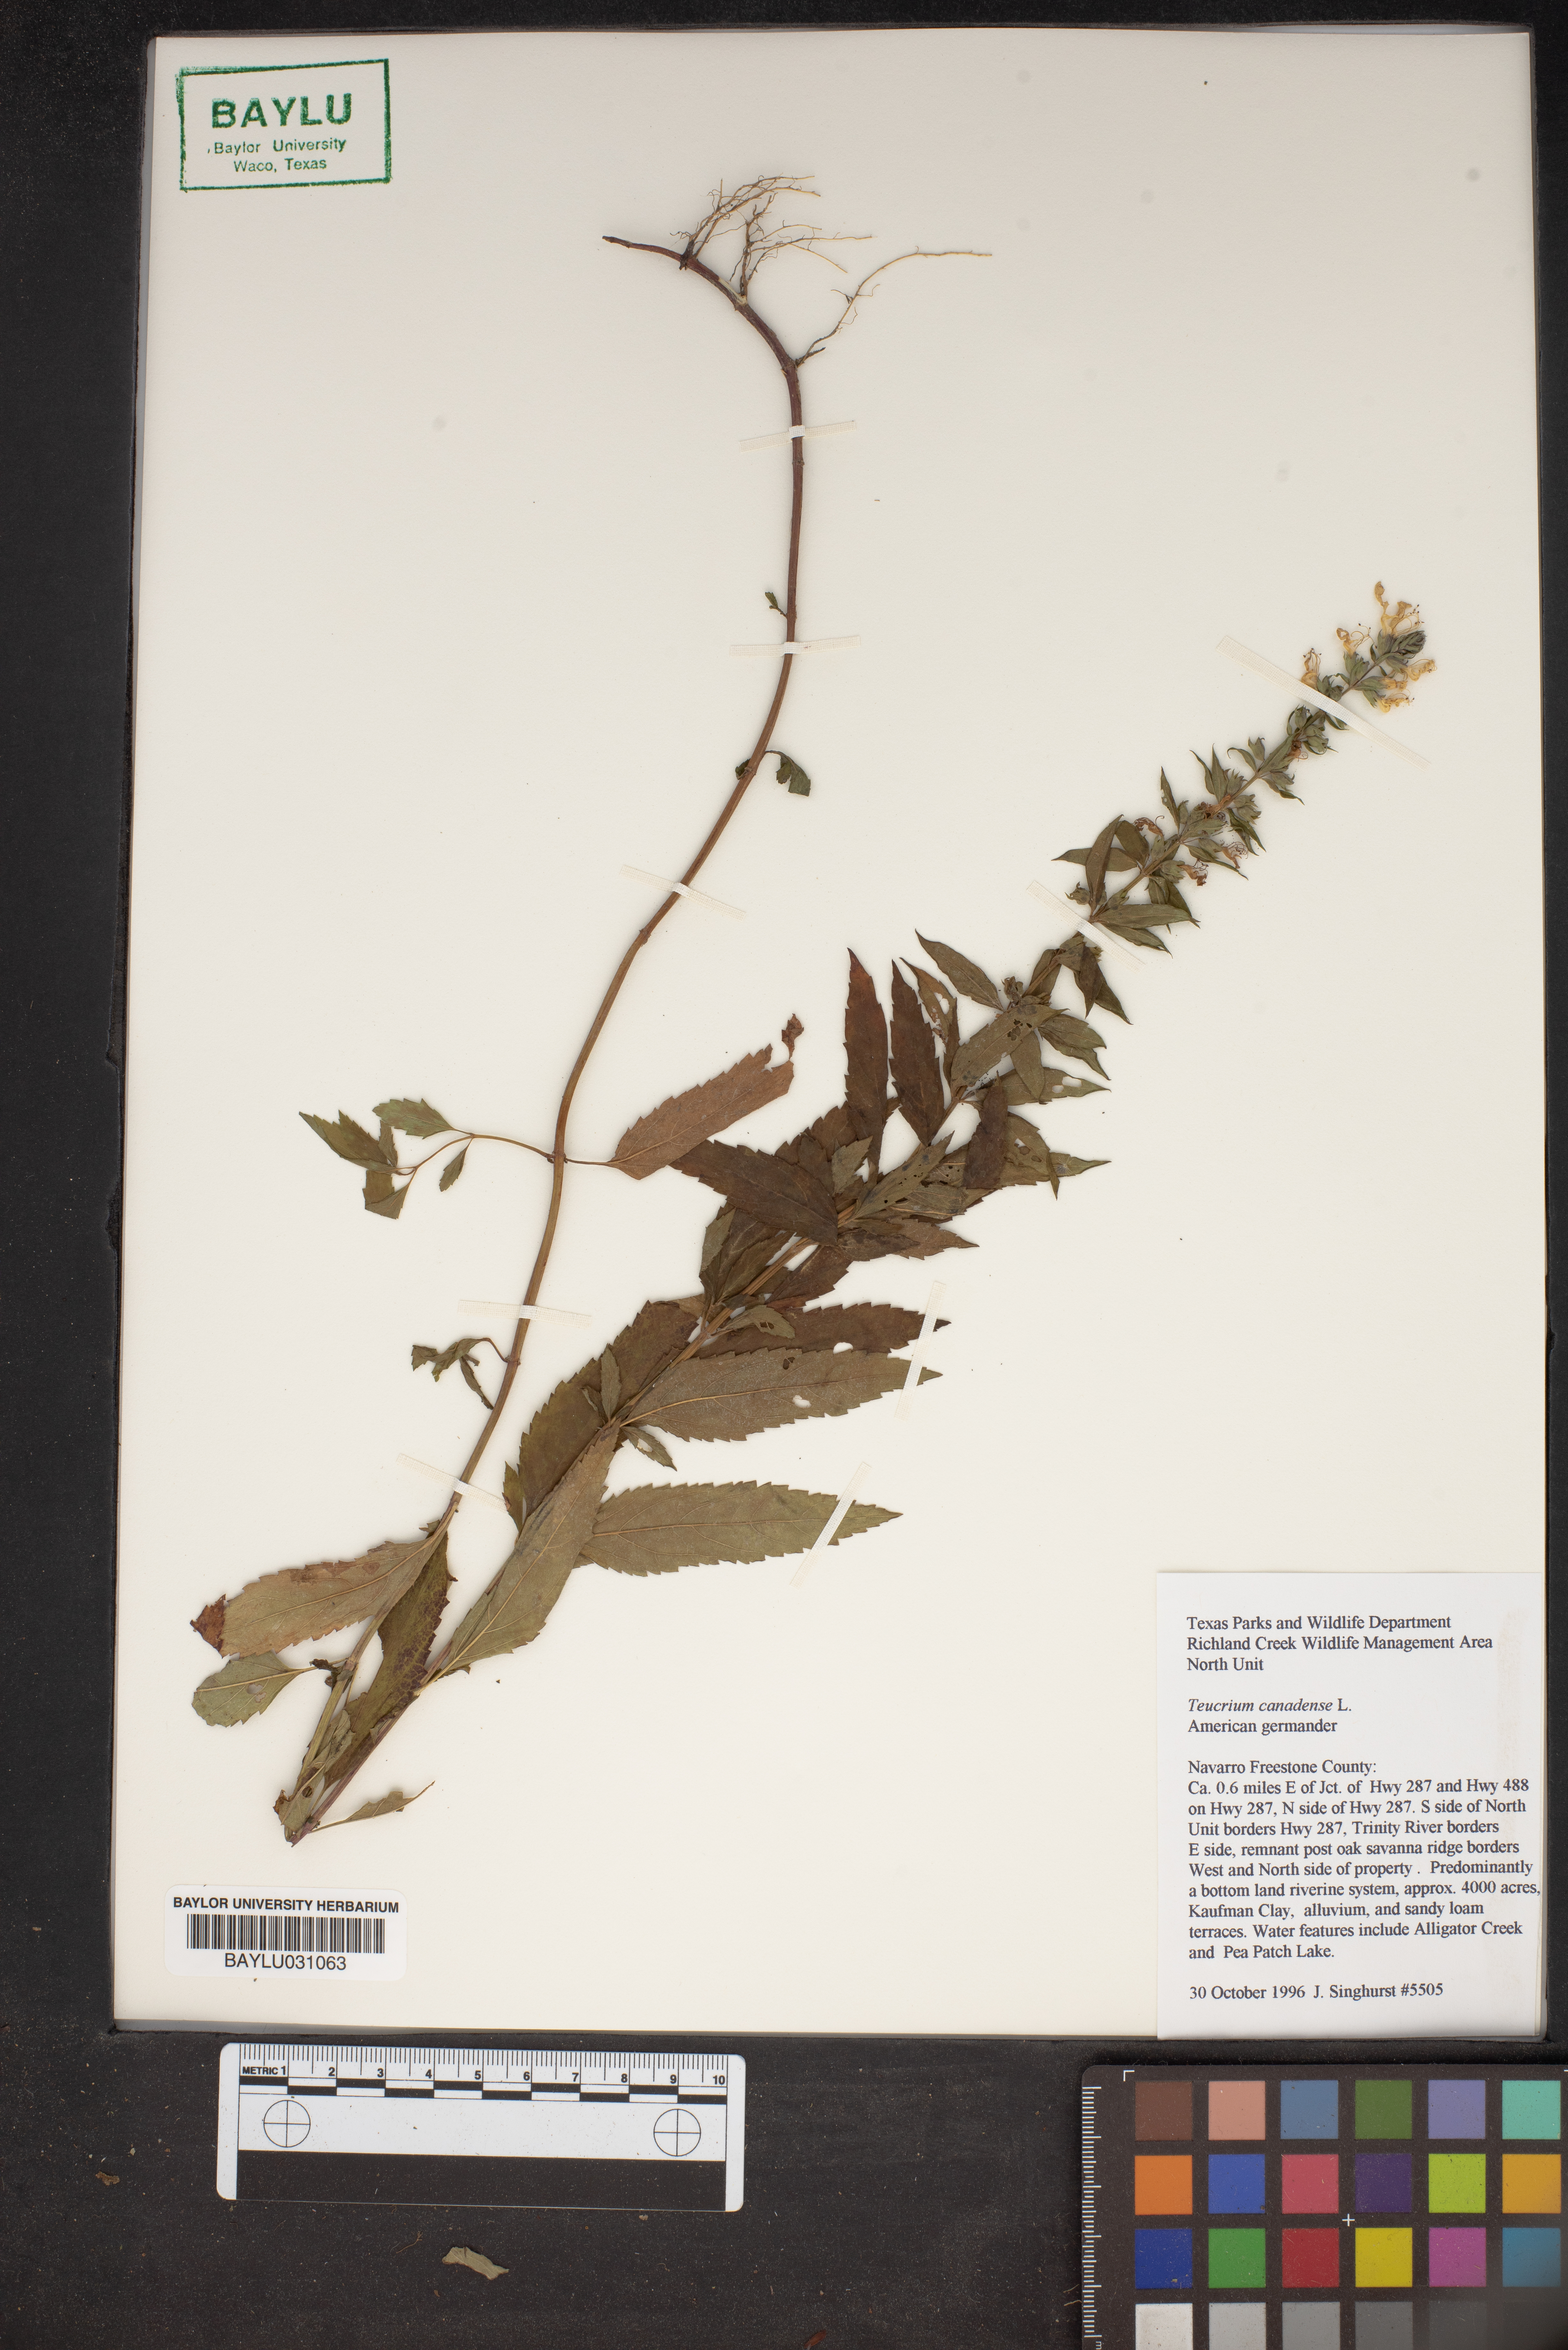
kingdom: Plantae
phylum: Tracheophyta
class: Magnoliopsida
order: Lamiales
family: Lamiaceae
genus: Teucrium
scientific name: Teucrium canadense
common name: American germander
